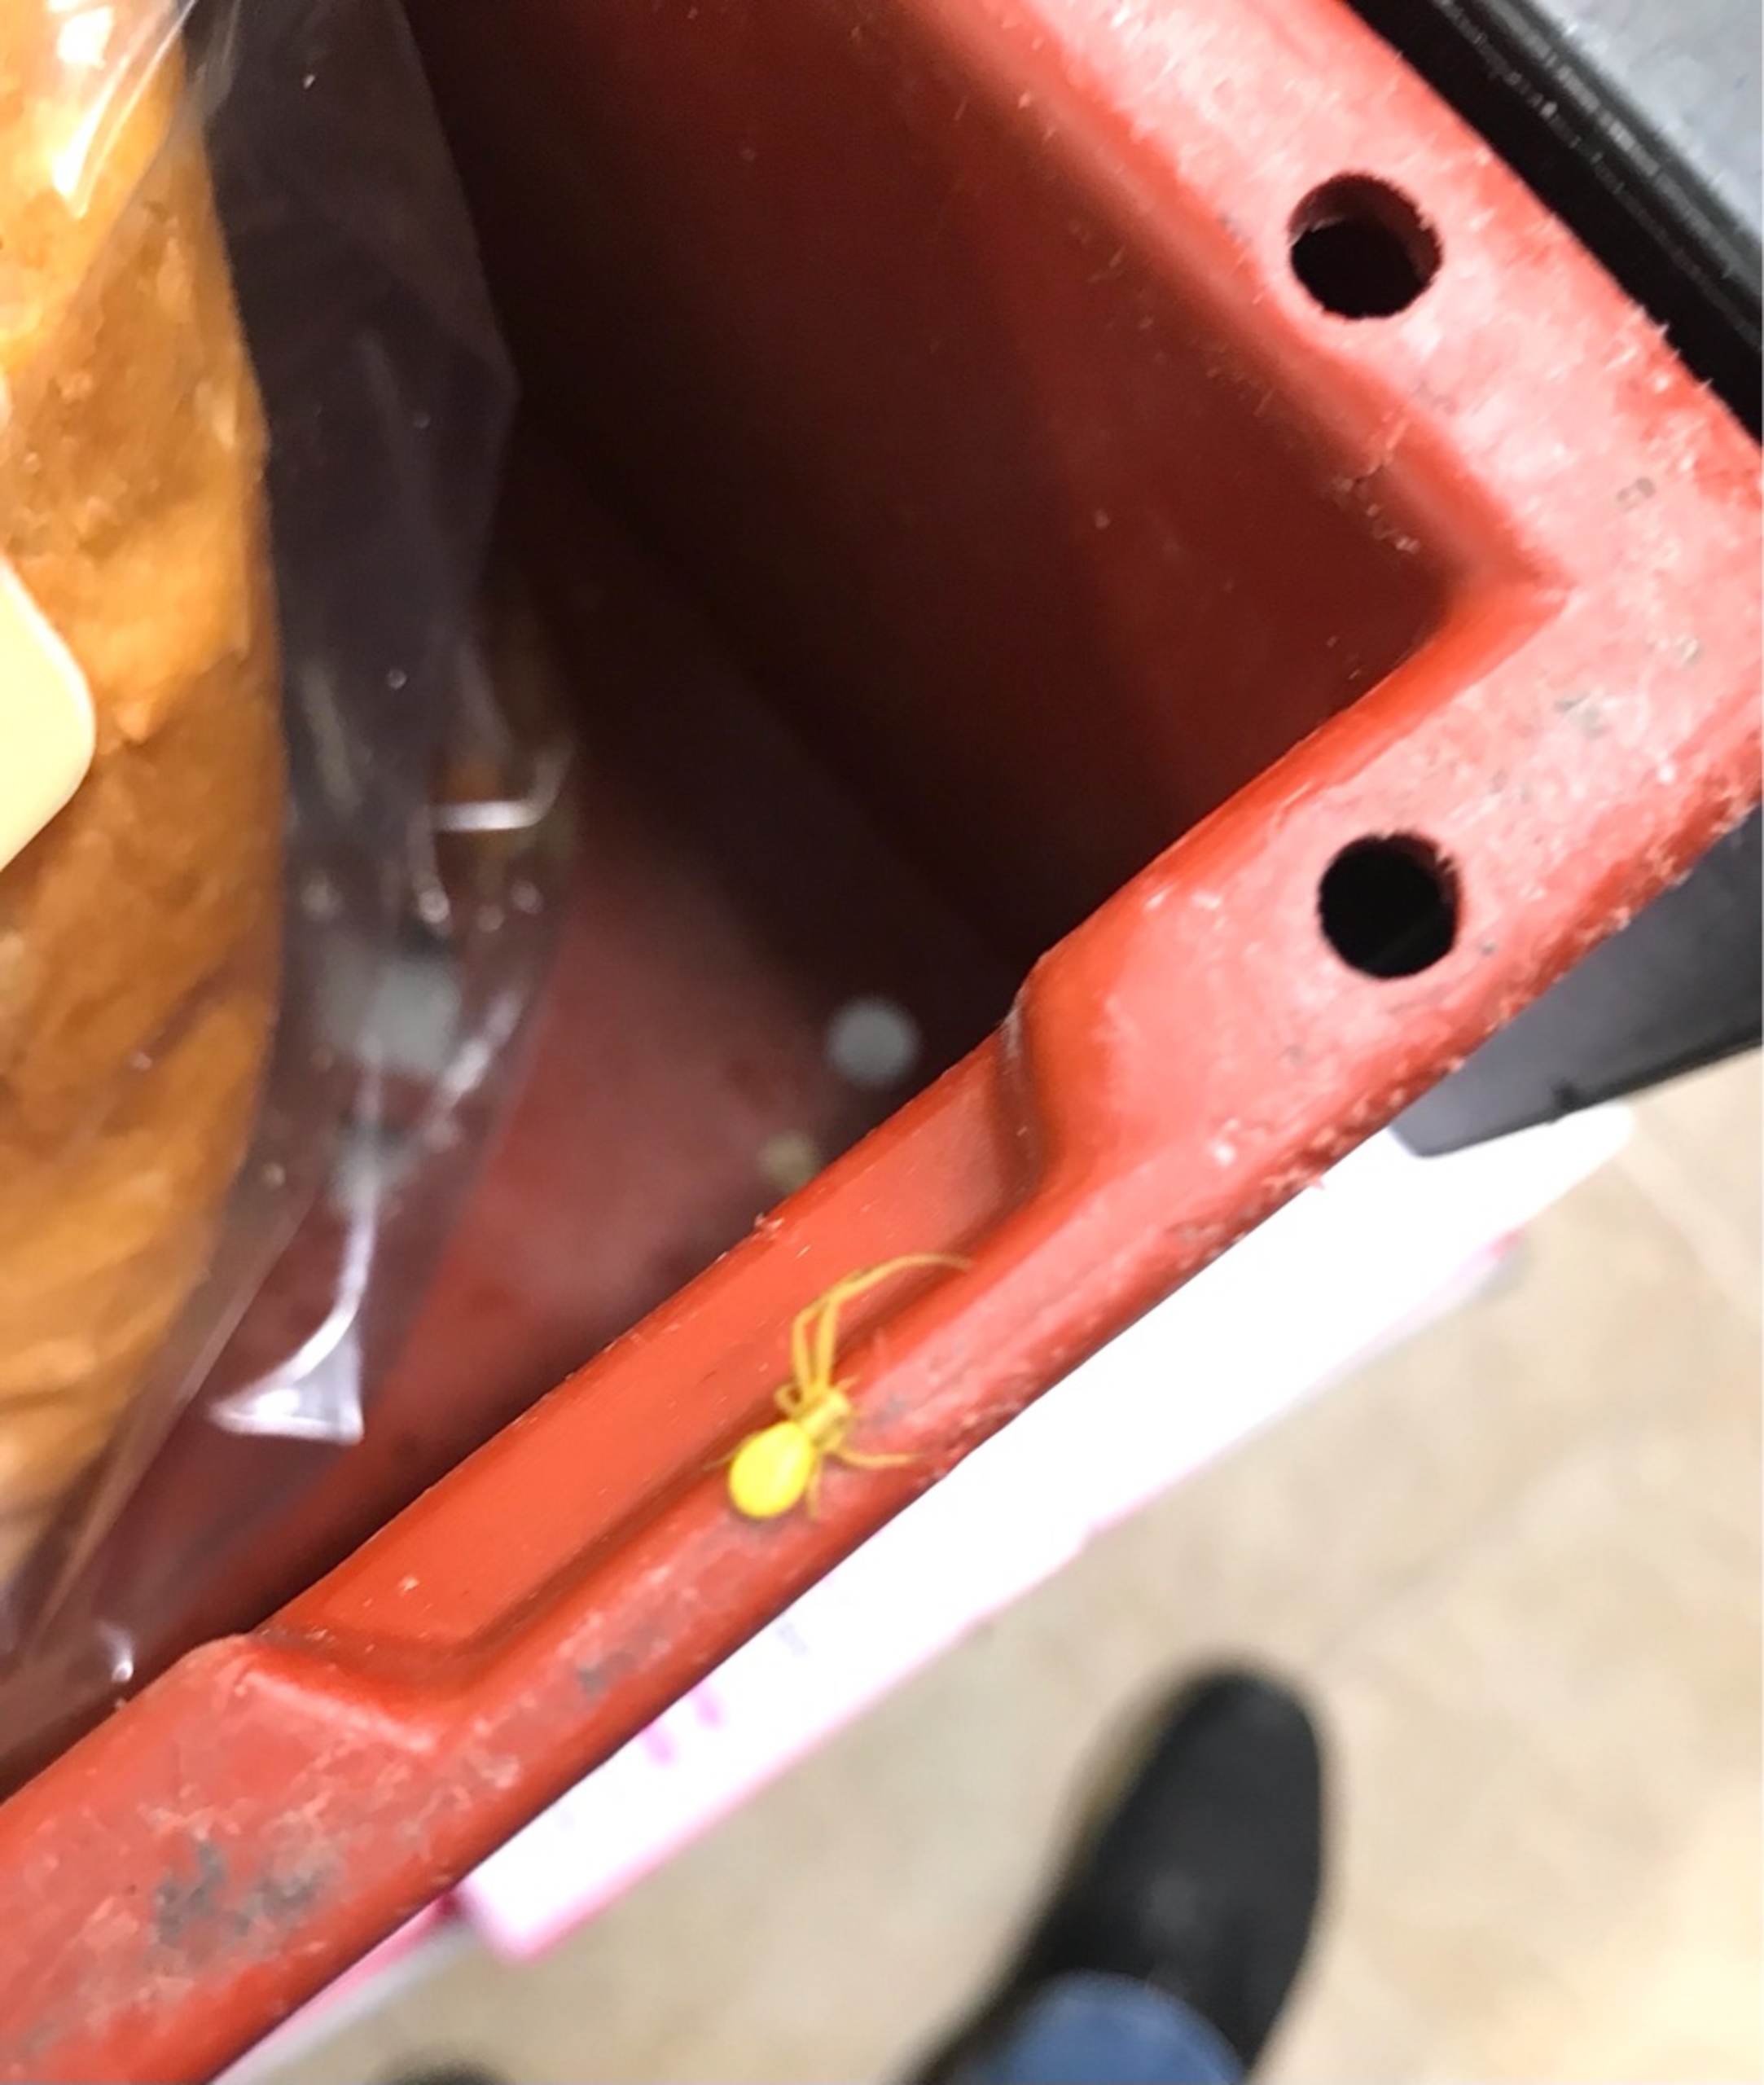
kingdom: Animalia
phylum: Arthropoda
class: Arachnida
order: Araneae
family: Thomisidae
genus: Misumena
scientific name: Misumena vatia
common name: Kamæleonedderkop
